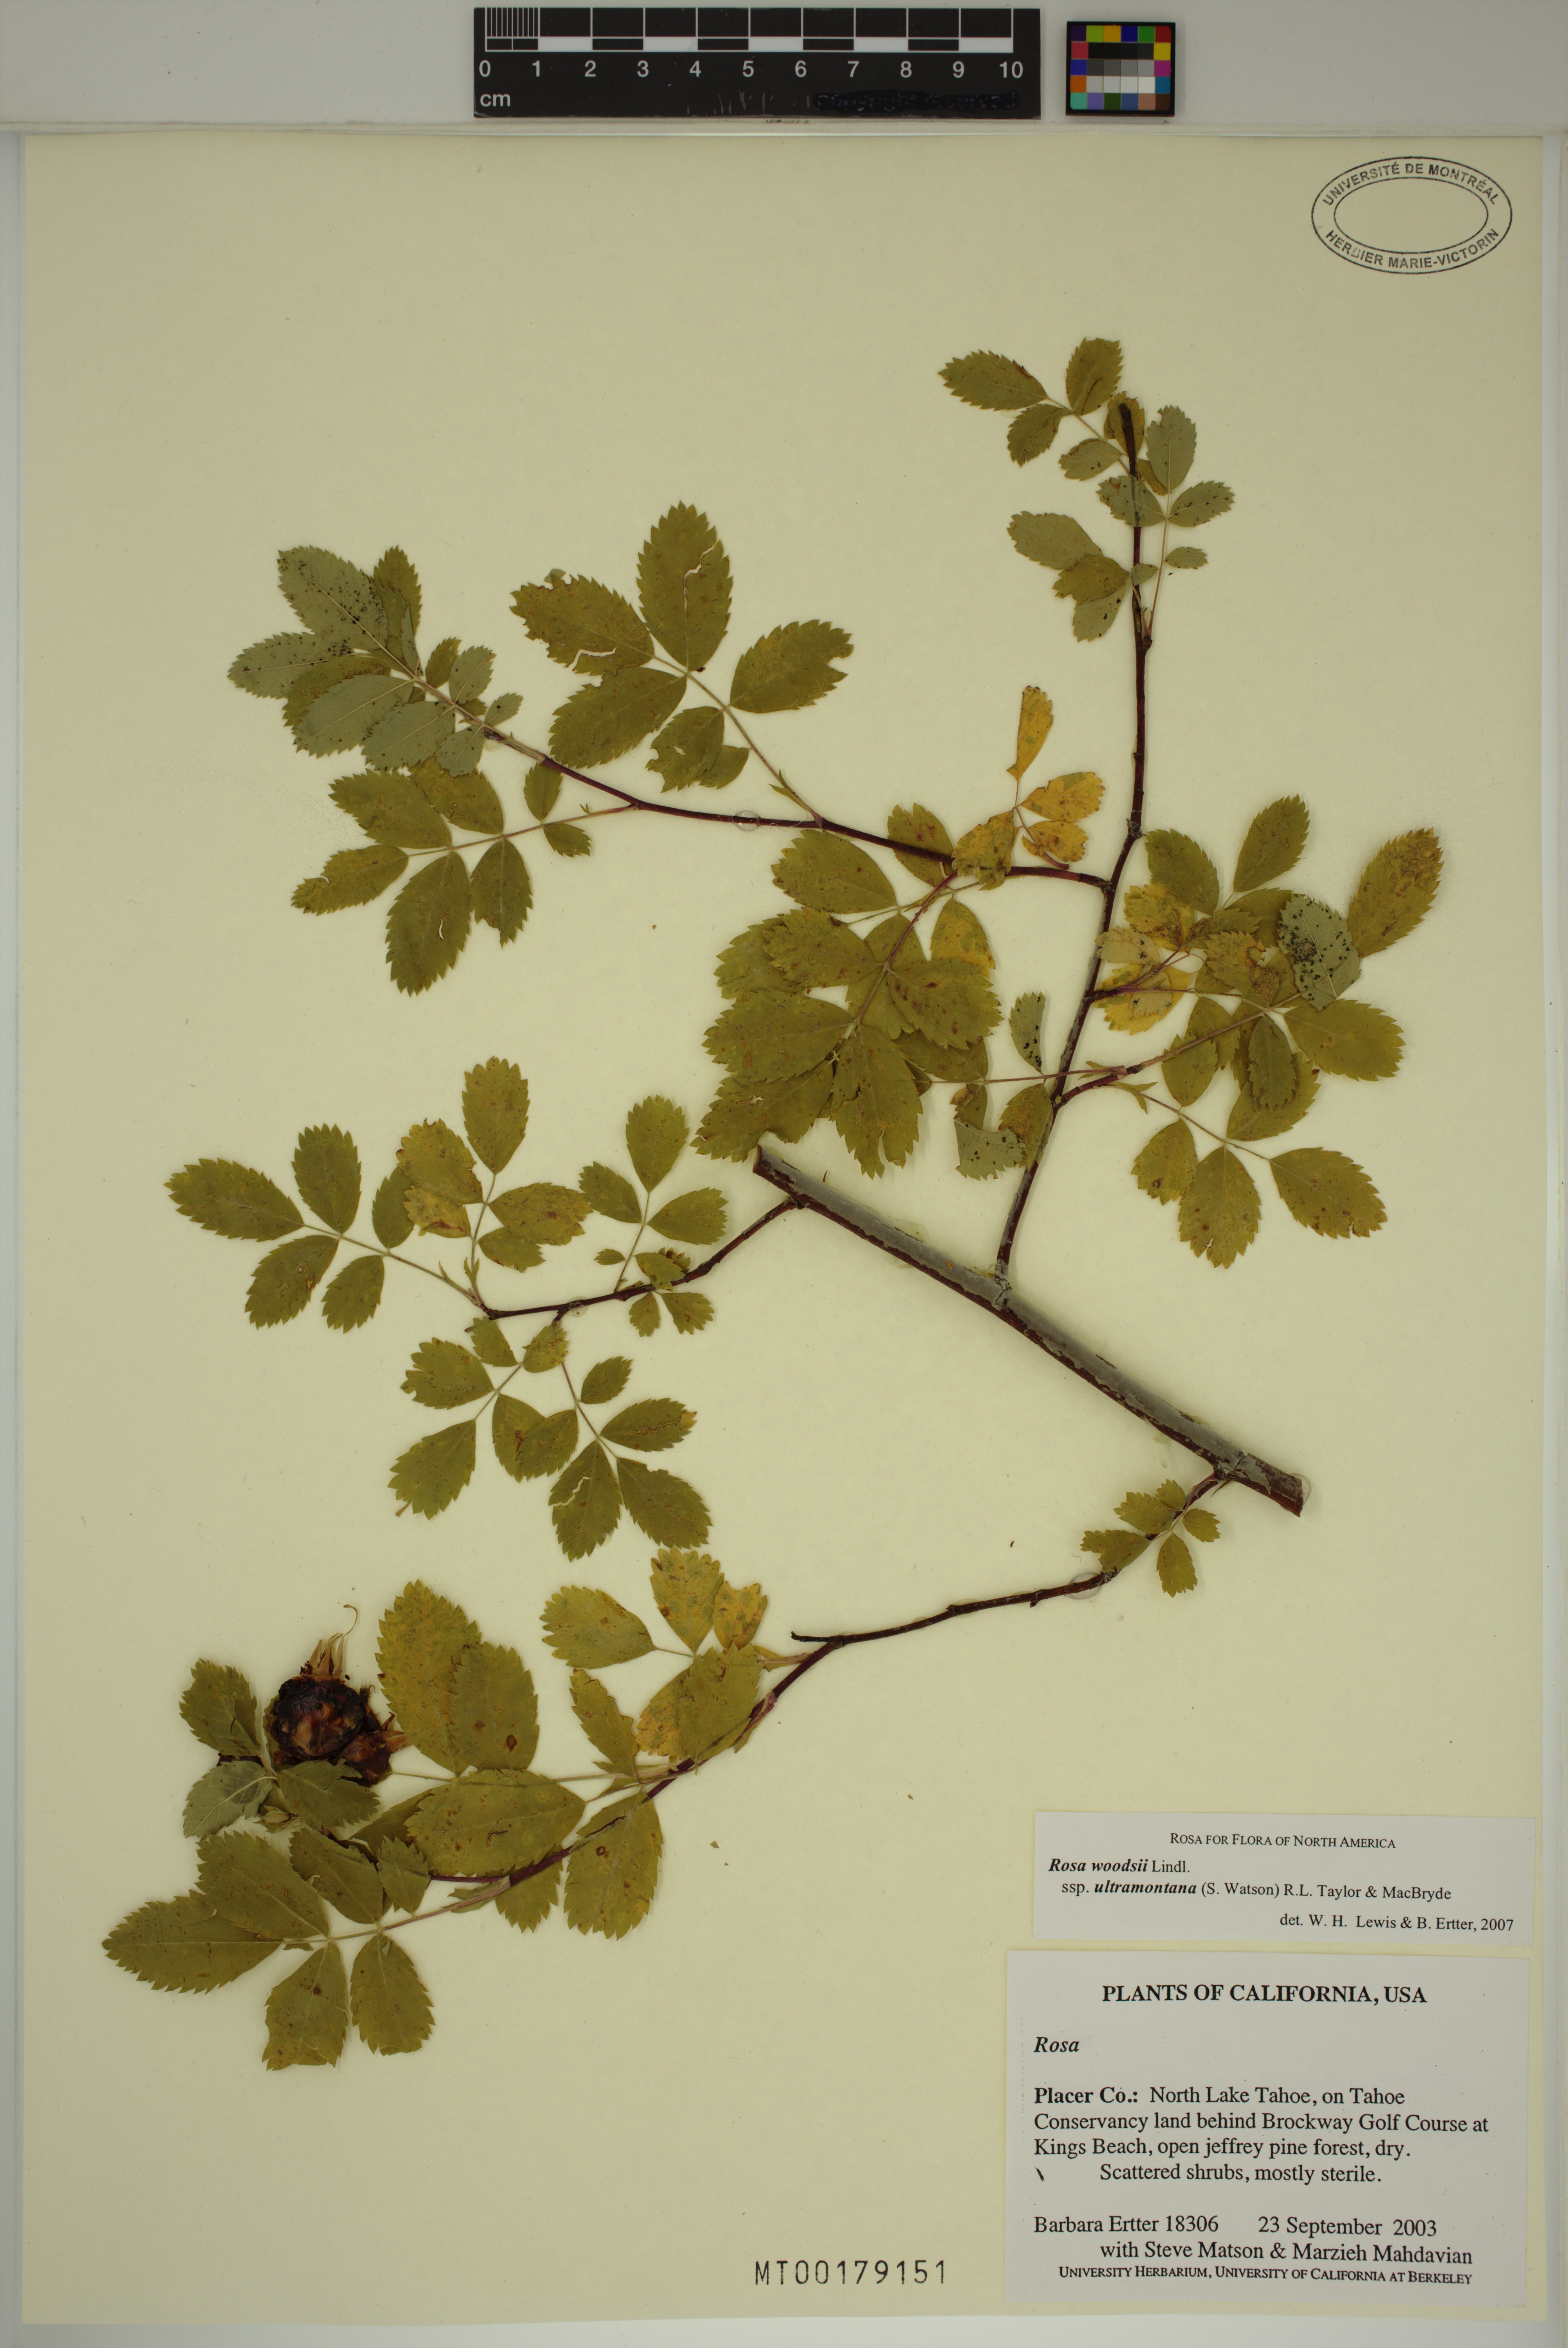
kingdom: Plantae
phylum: Tracheophyta
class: Magnoliopsida
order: Rosales
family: Rosaceae
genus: Rosa
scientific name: Rosa woodsii
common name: Woods's rose
